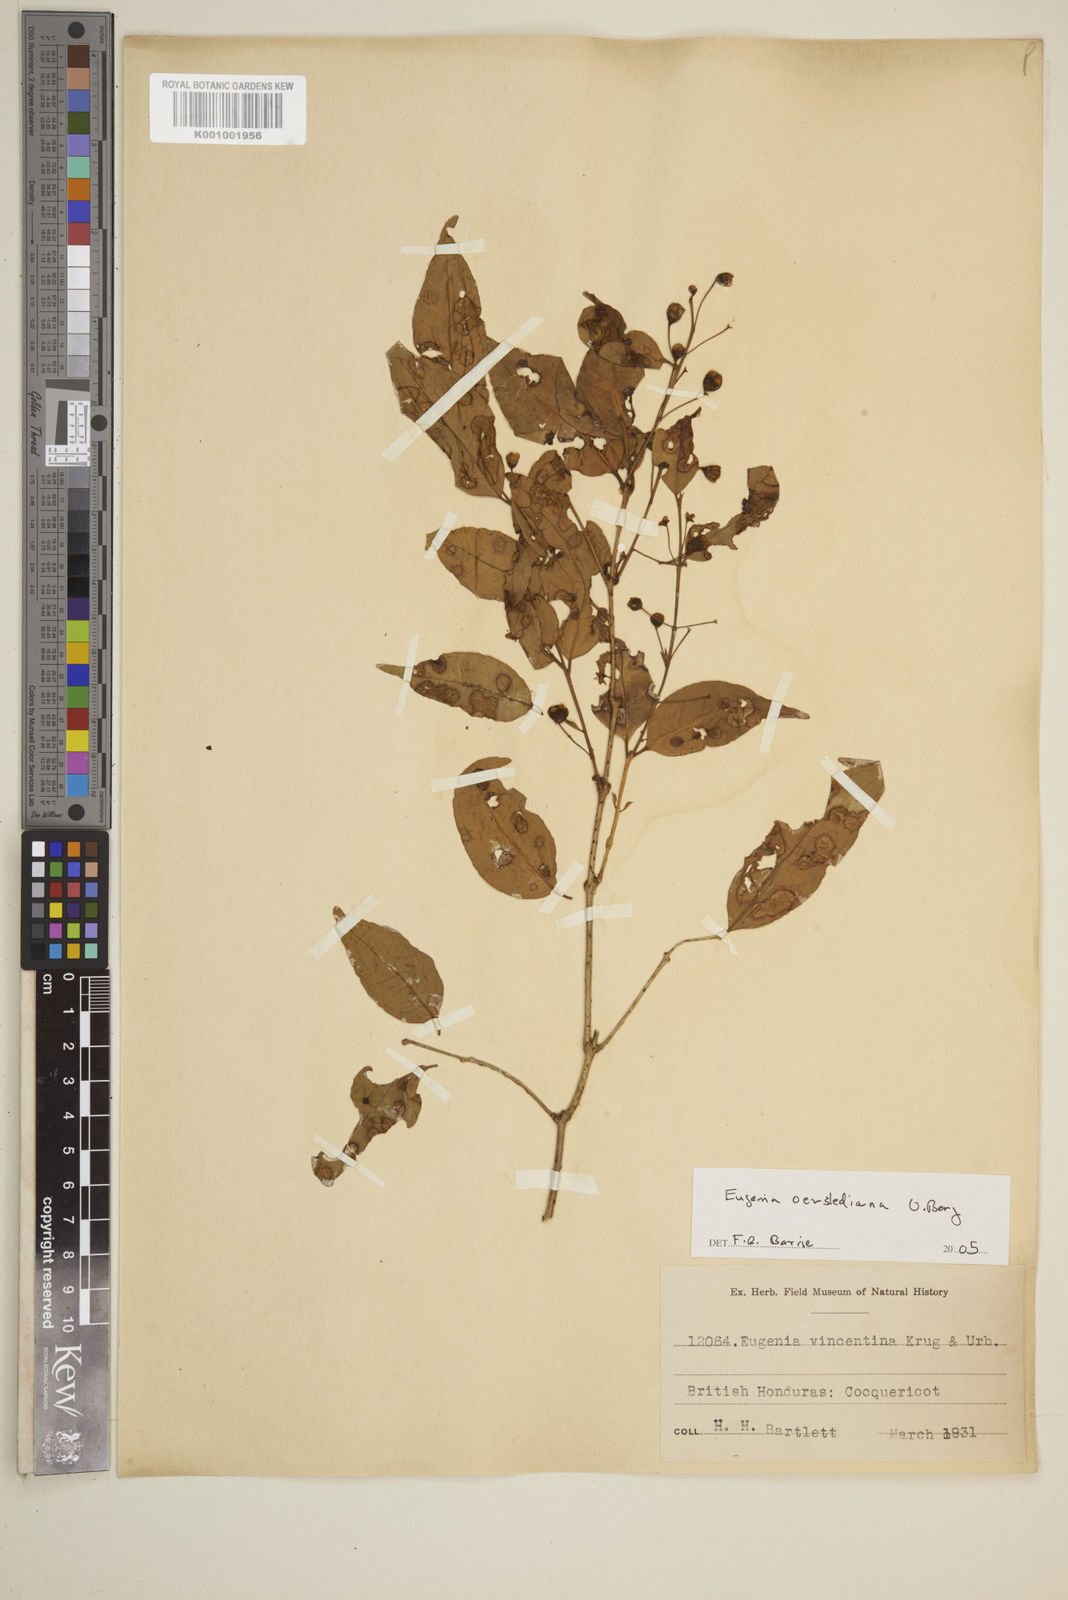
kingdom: Plantae
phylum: Tracheophyta
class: Magnoliopsida
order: Myrtales
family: Myrtaceae
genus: Eugenia
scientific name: Eugenia oerstediana
